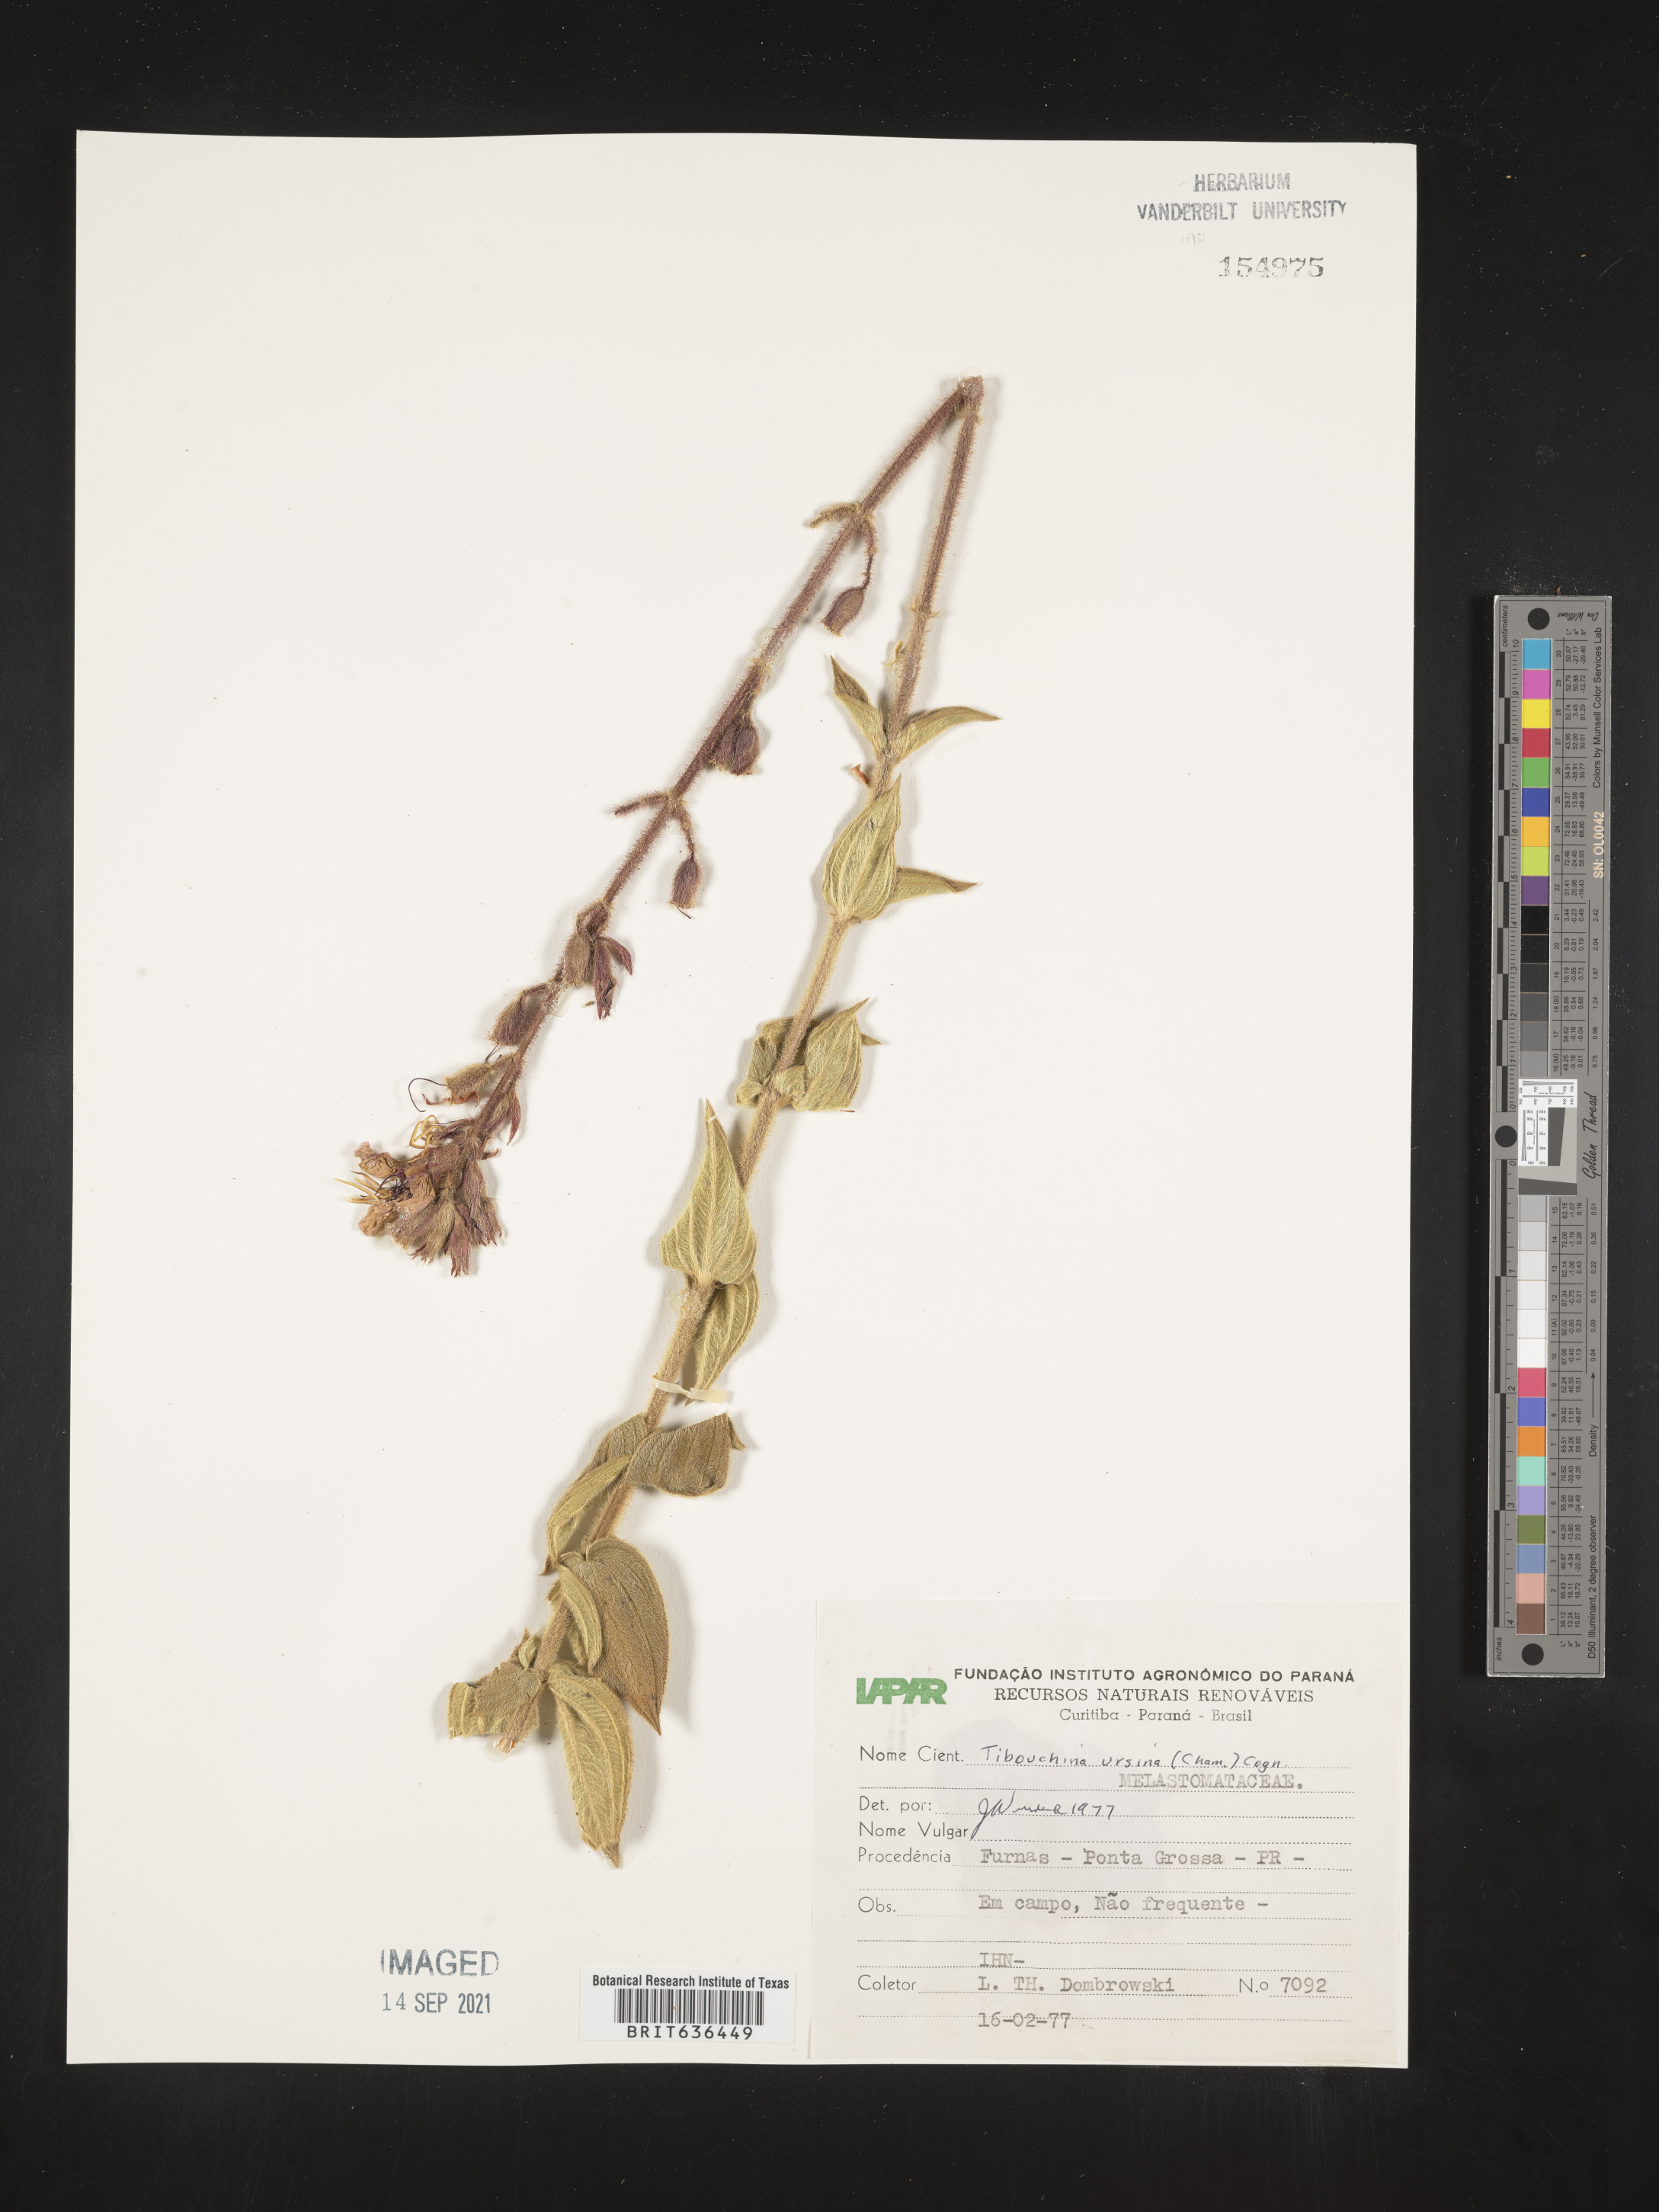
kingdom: Plantae
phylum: Tracheophyta
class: Magnoliopsida
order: Myrtales
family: Melastomataceae
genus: Tibouchina
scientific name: Tibouchina
